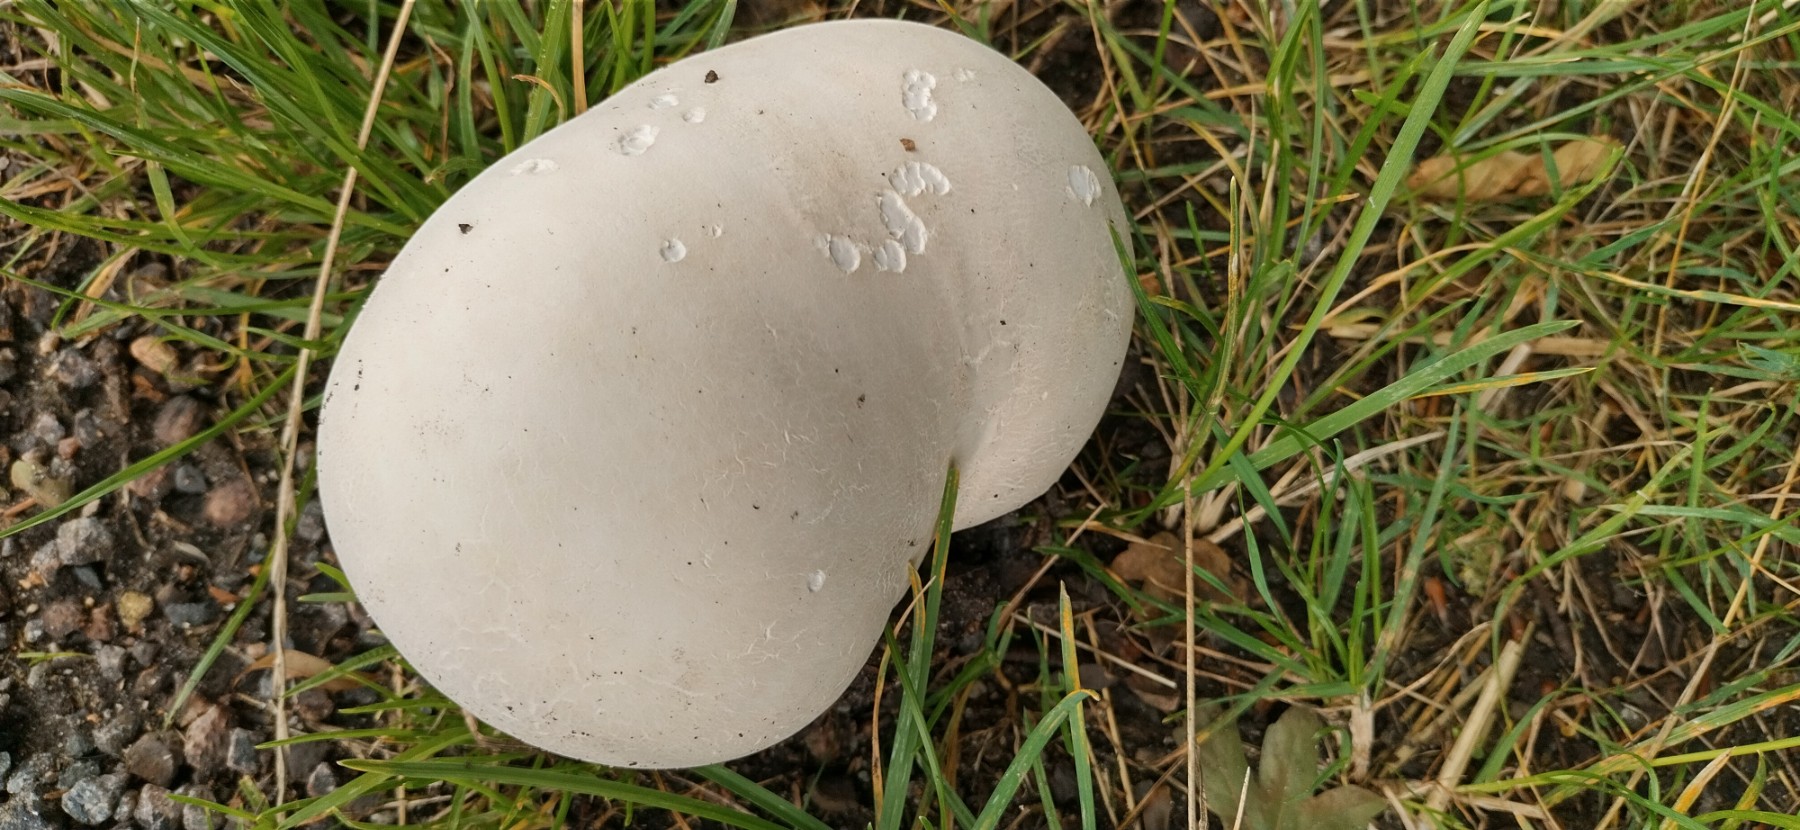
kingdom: Fungi
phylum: Basidiomycota
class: Agaricomycetes
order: Agaricales
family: Lycoperdaceae
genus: Calvatia
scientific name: Calvatia gigantea
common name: kæmpestøvbold
